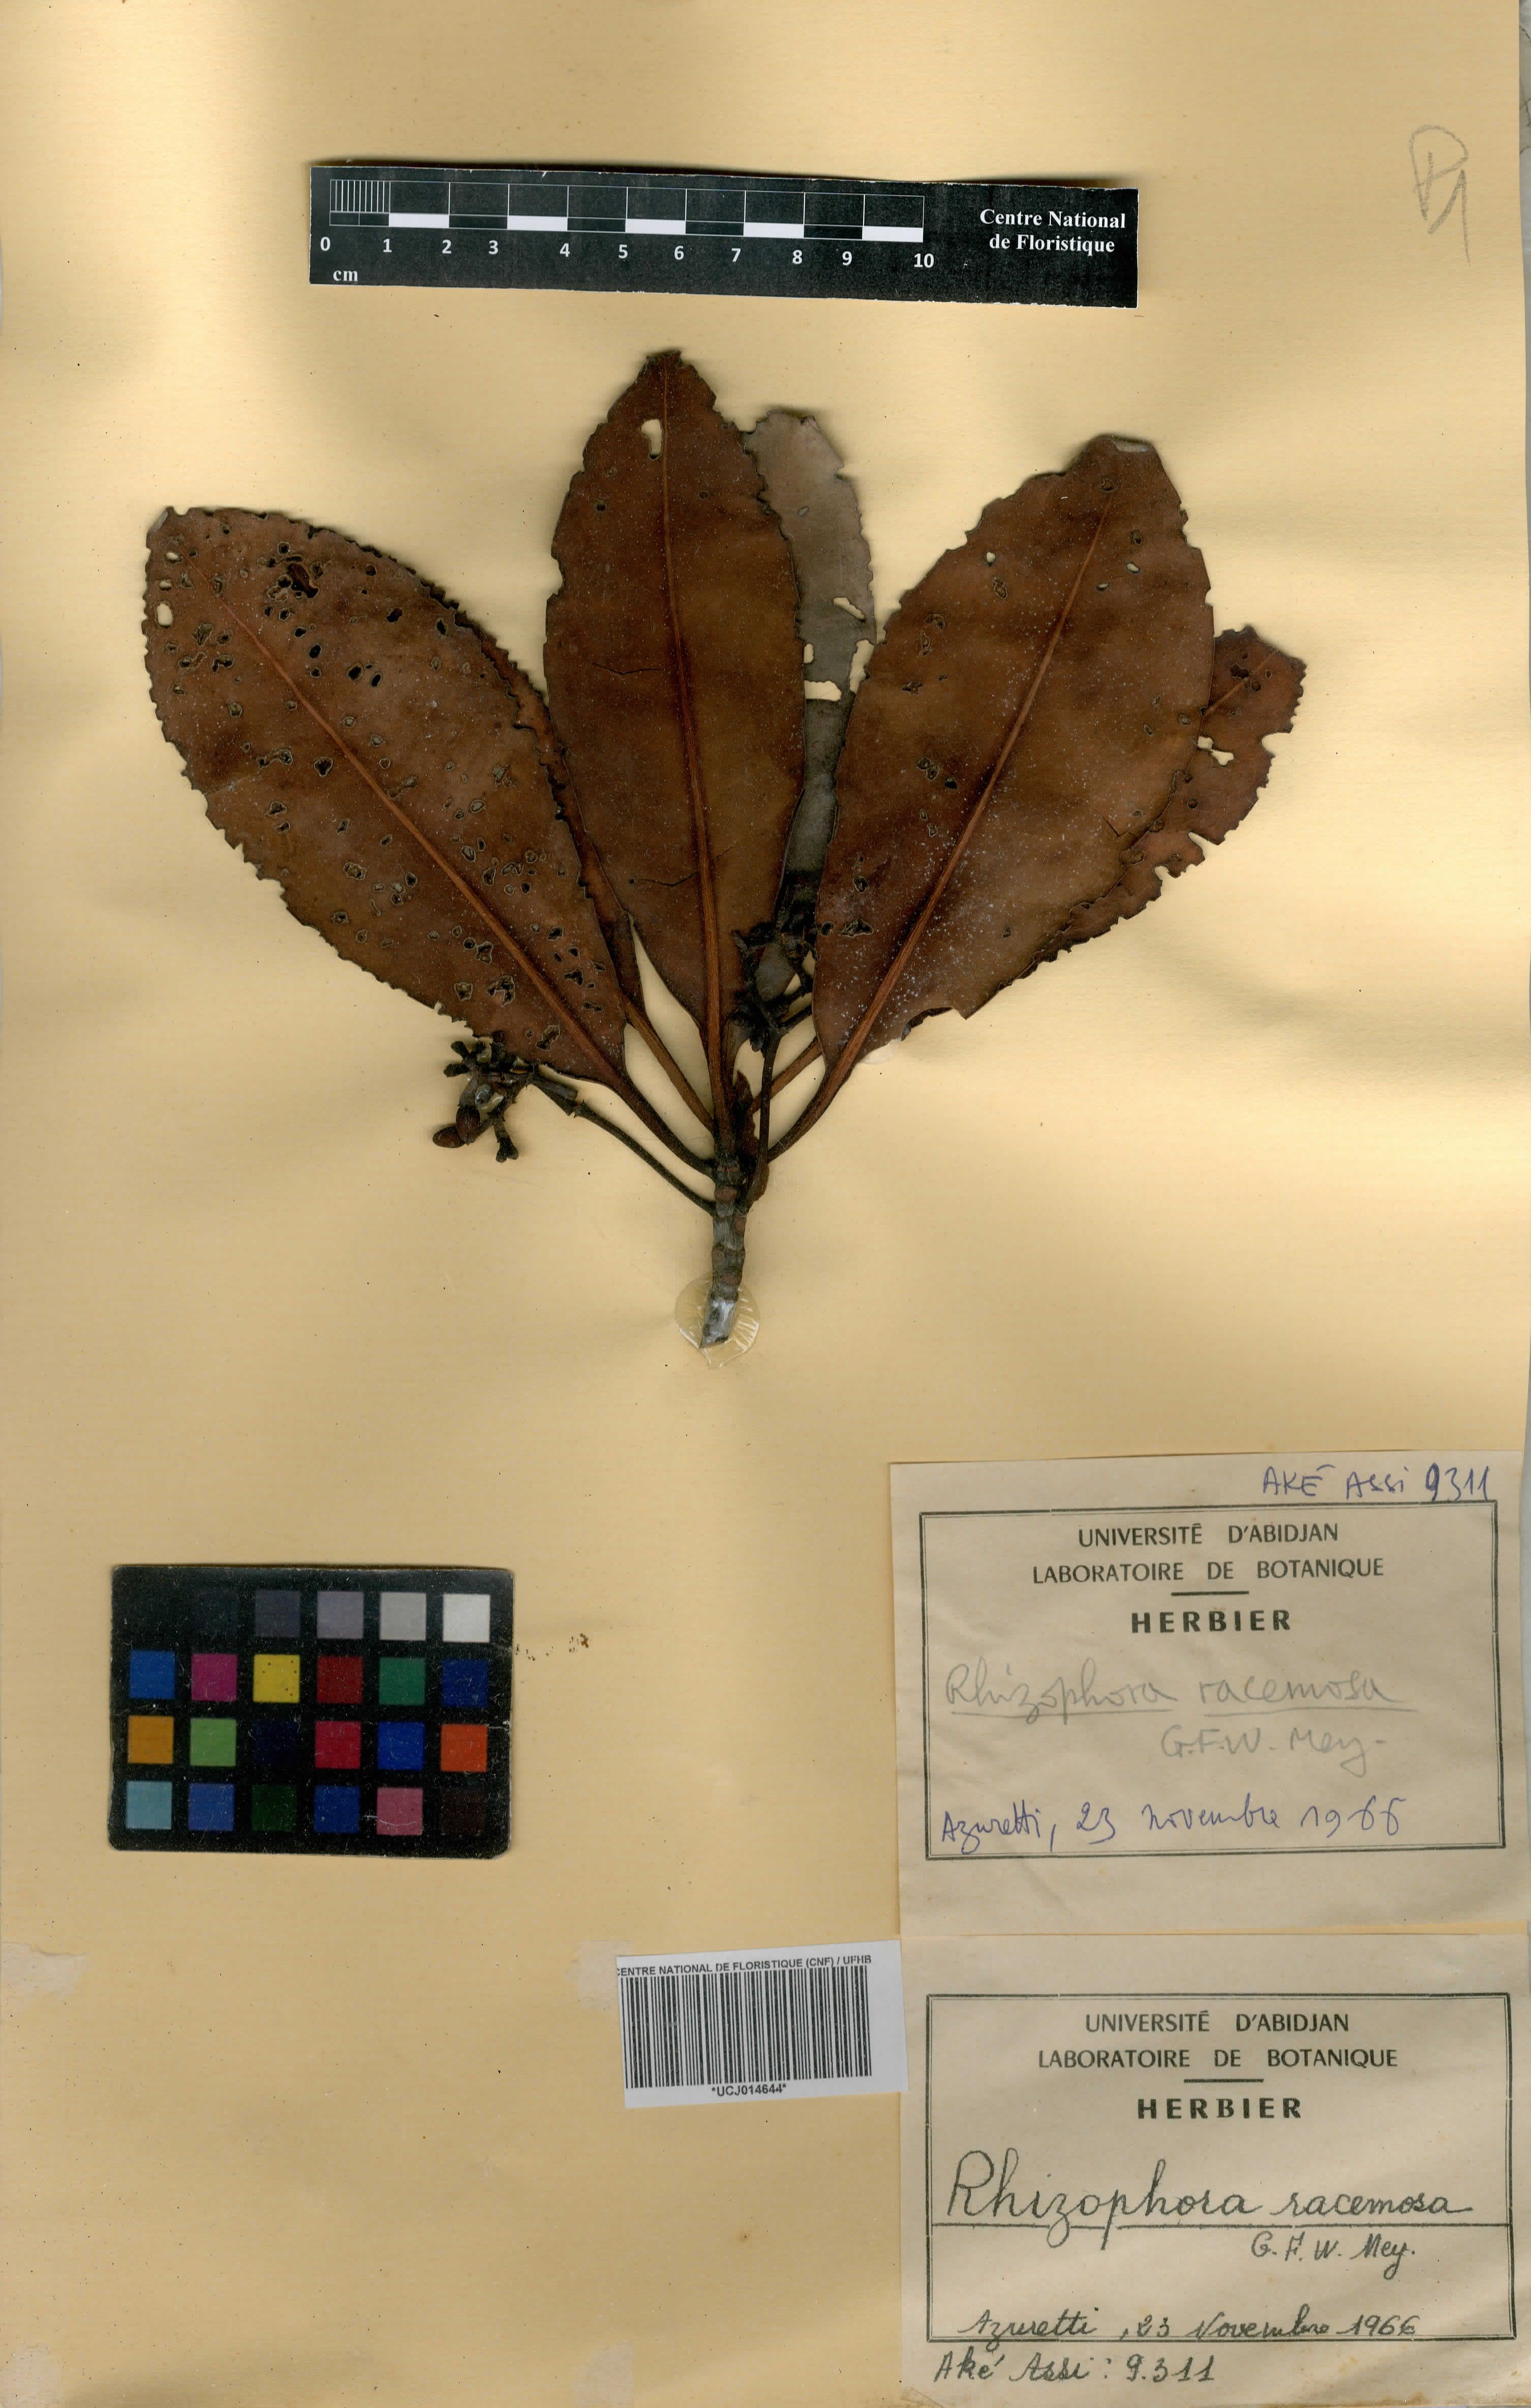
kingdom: Plantae
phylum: Tracheophyta
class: Magnoliopsida
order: Malpighiales
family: Rhizophoraceae
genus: Rhizophora
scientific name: Rhizophora racemosa
